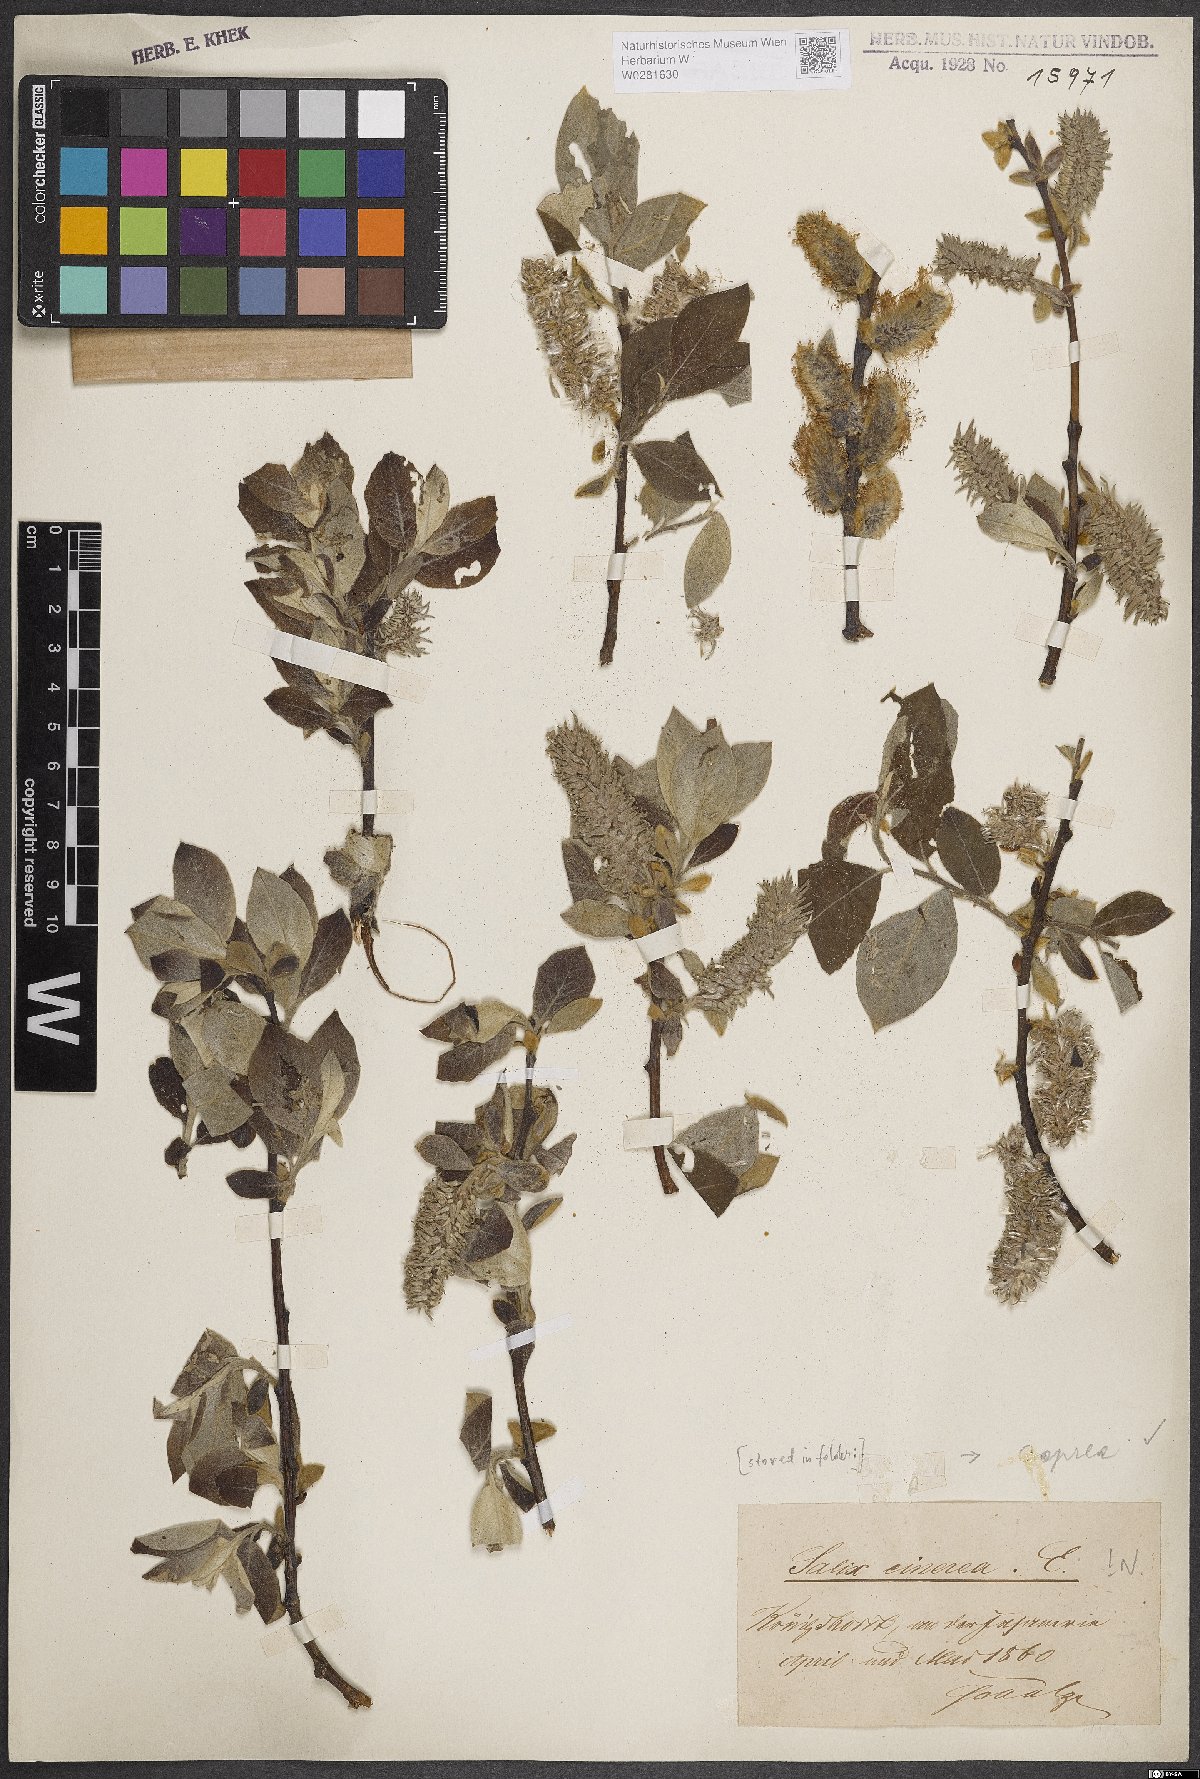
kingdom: Plantae
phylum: Tracheophyta
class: Magnoliopsida
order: Malpighiales
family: Salicaceae
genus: Salix
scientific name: Salix caprea
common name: Goat willow
